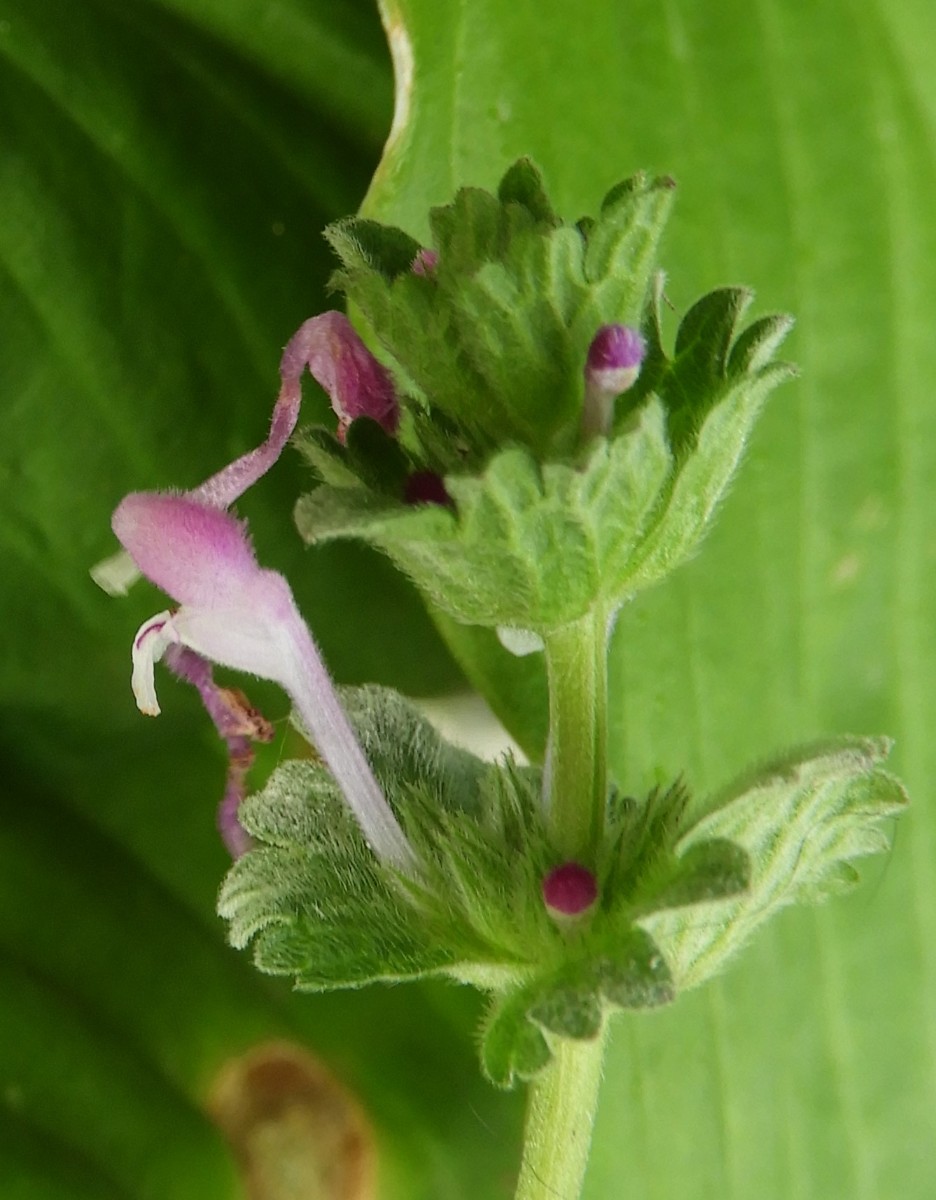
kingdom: Fungi
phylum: Ascomycota
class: Leotiomycetes
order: Helotiales
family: Erysiphaceae
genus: Neoerysiphe
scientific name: Neoerysiphe galeopsidis
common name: Mint mildew
